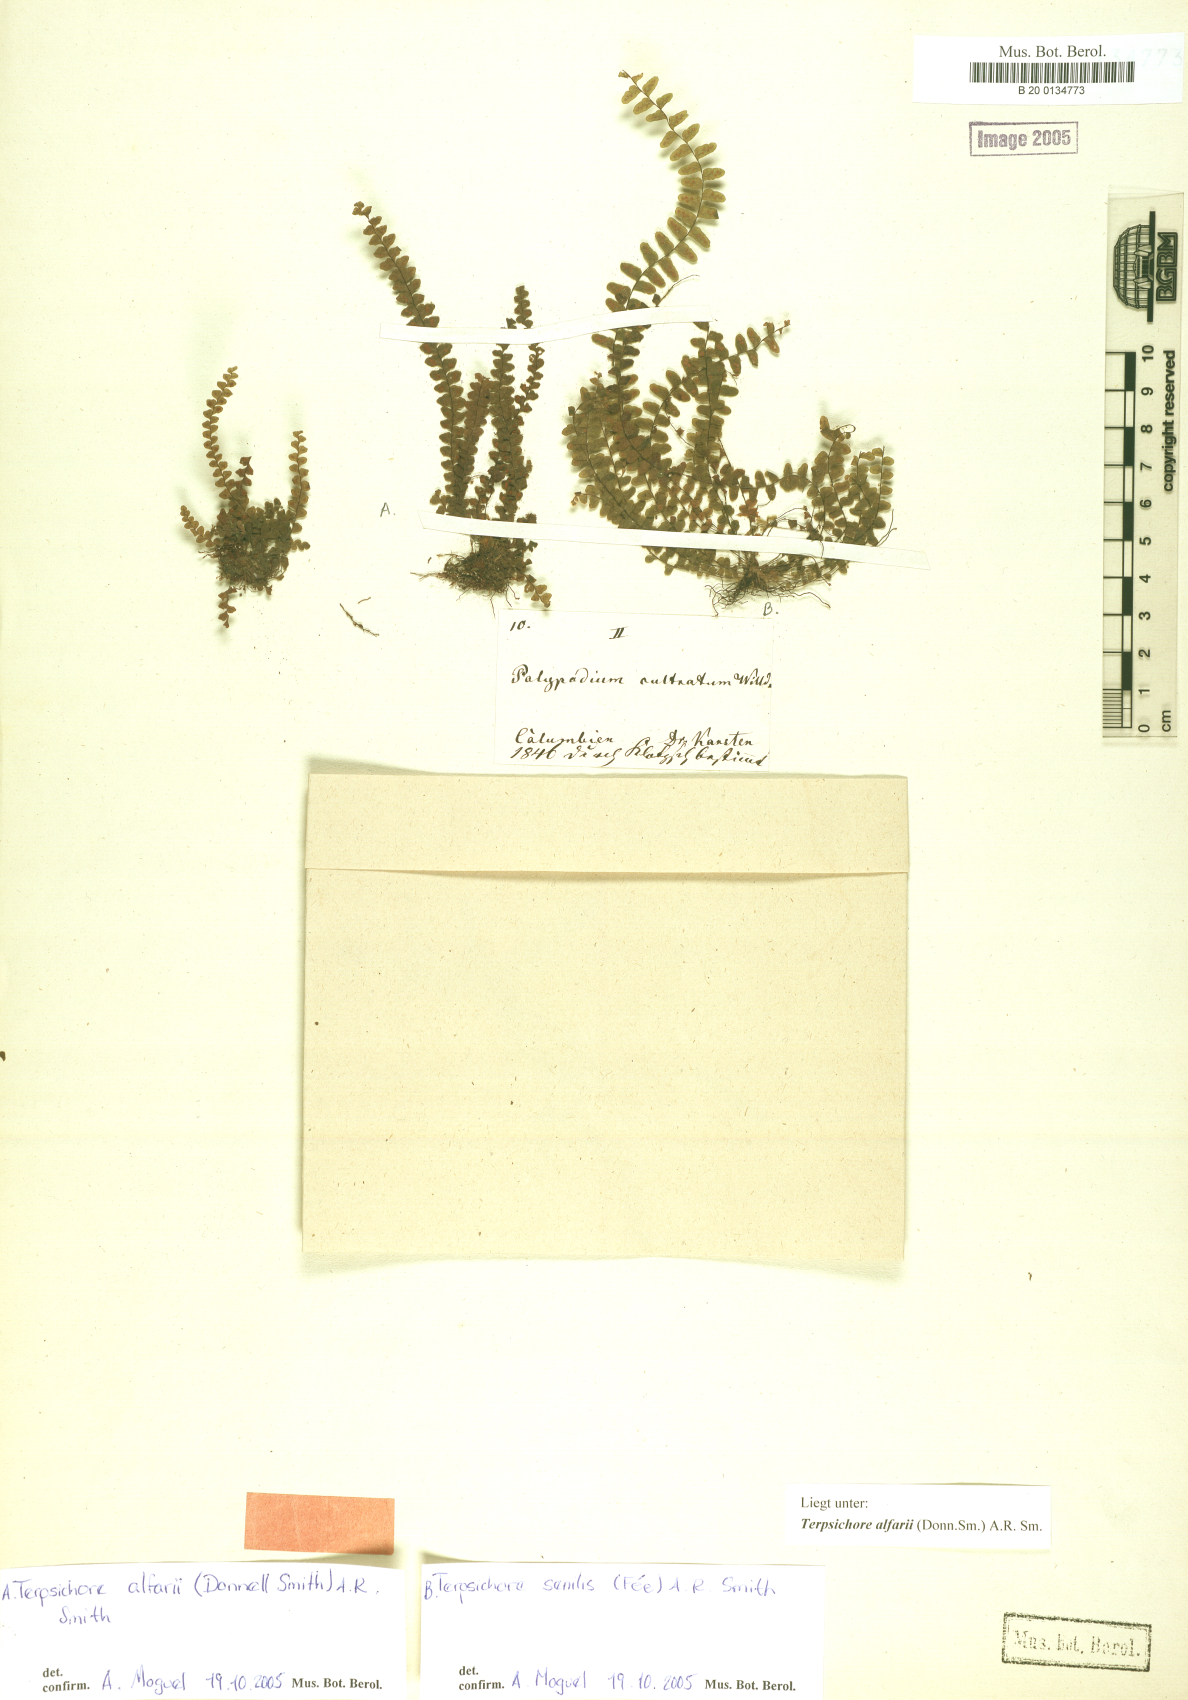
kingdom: Plantae
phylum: Tracheophyta
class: Polypodiopsida
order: Polypodiales
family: Polypodiaceae
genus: Alansmia
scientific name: Alansmia senilis
